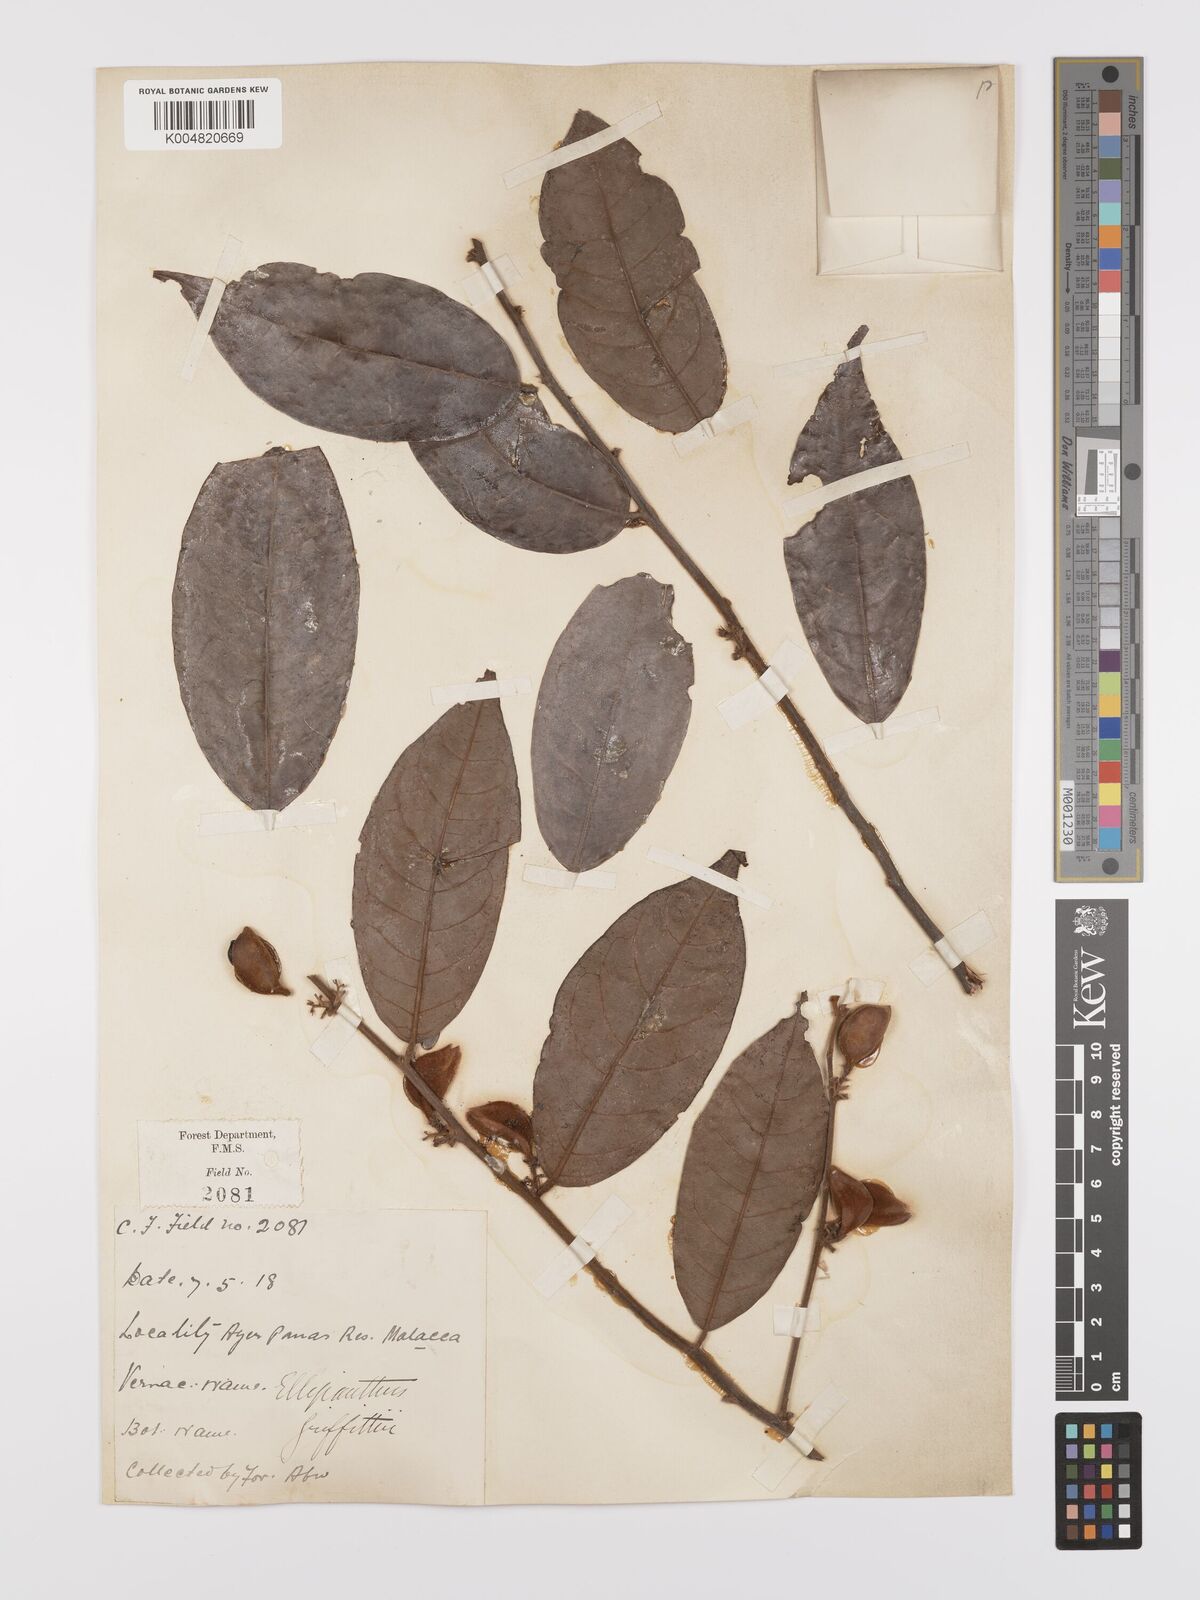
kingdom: Plantae
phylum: Tracheophyta
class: Magnoliopsida
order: Oxalidales
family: Connaraceae
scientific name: Connaraceae
